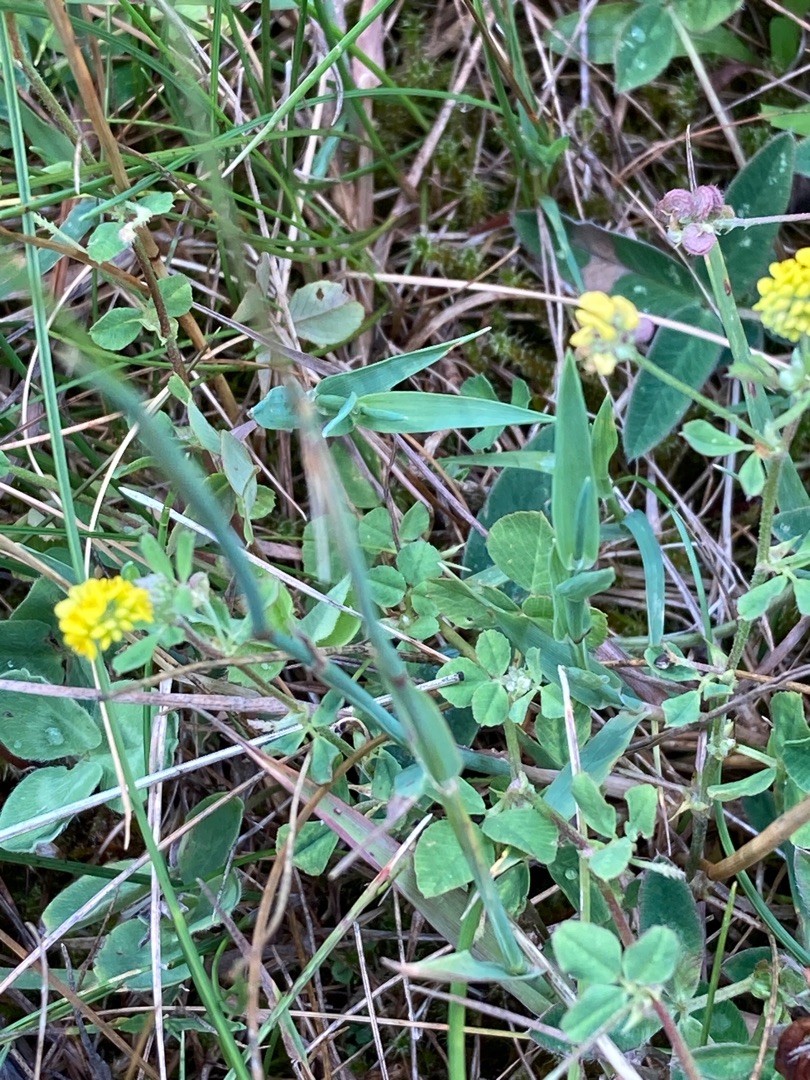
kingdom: Plantae
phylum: Tracheophyta
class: Magnoliopsida
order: Fabales
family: Fabaceae
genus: Medicago
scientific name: Medicago lupulina
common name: Humle-sneglebælg
